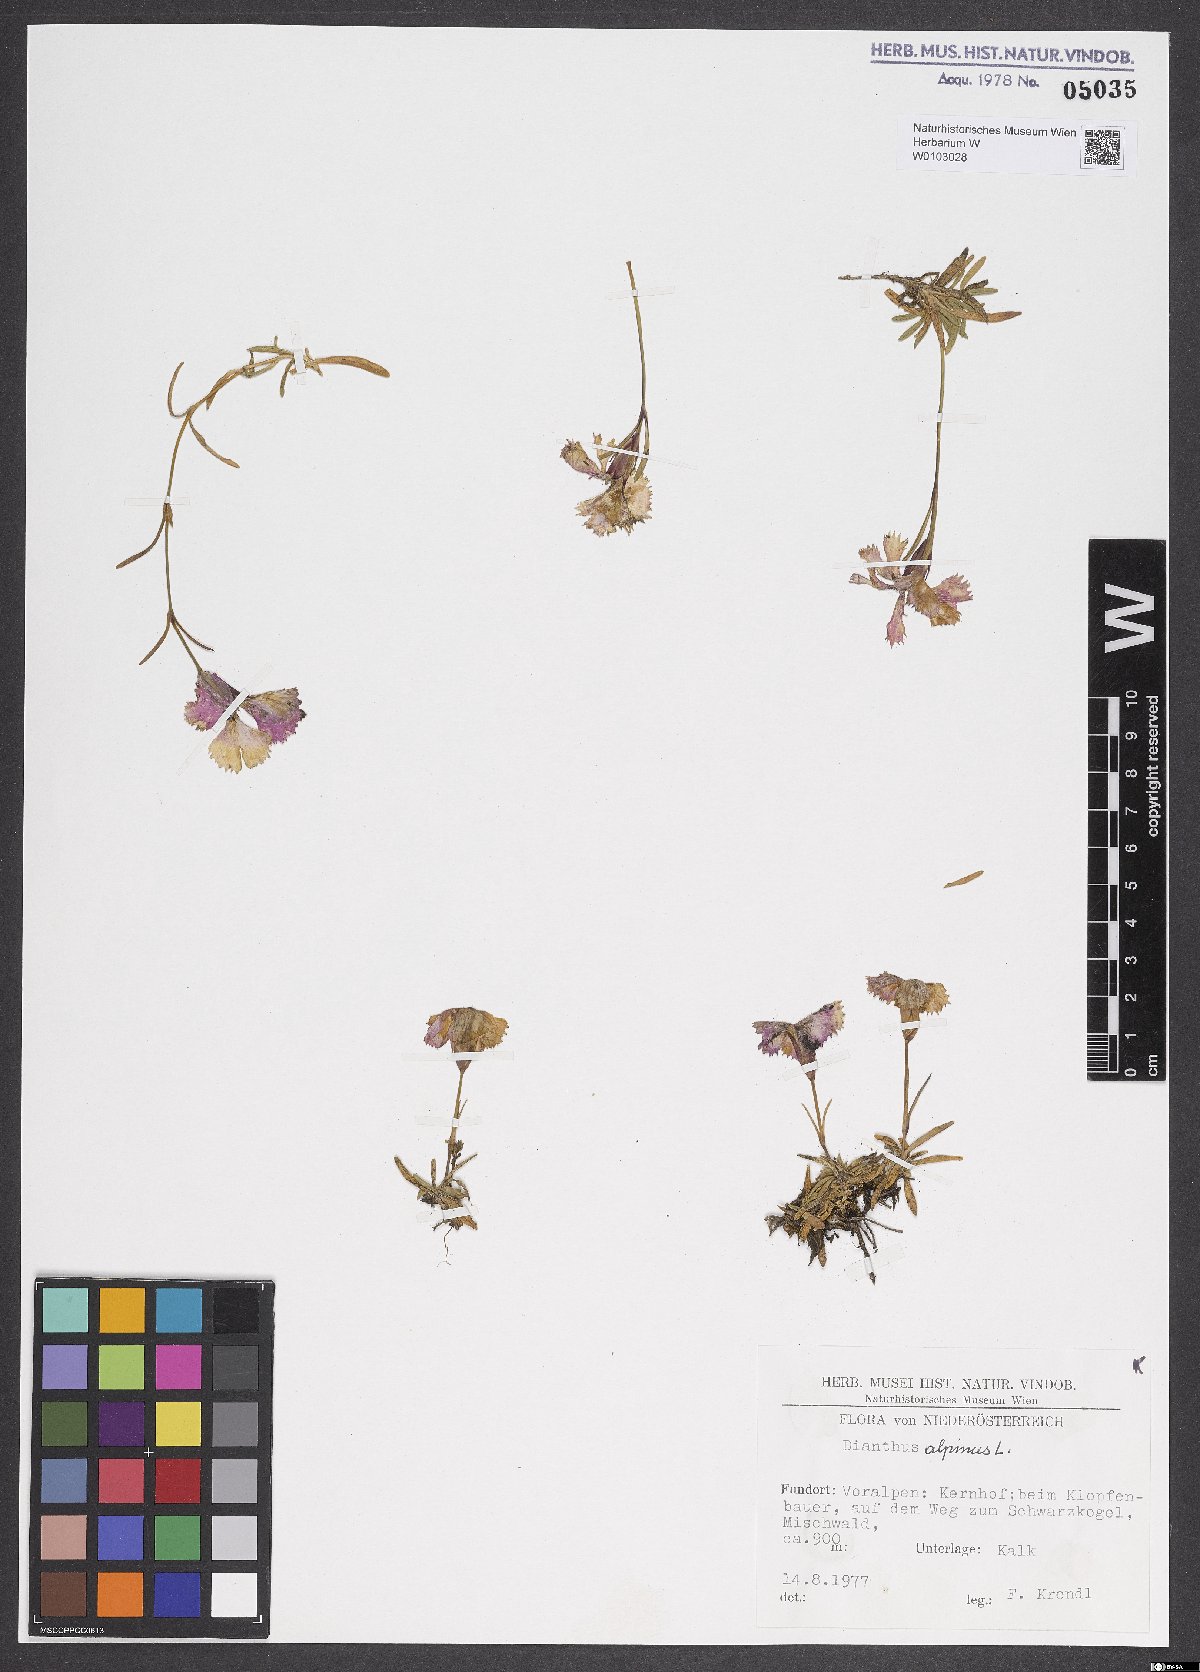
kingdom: Plantae
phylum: Tracheophyta
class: Magnoliopsida
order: Caryophyllales
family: Caryophyllaceae
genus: Dianthus
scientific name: Dianthus alpinus
